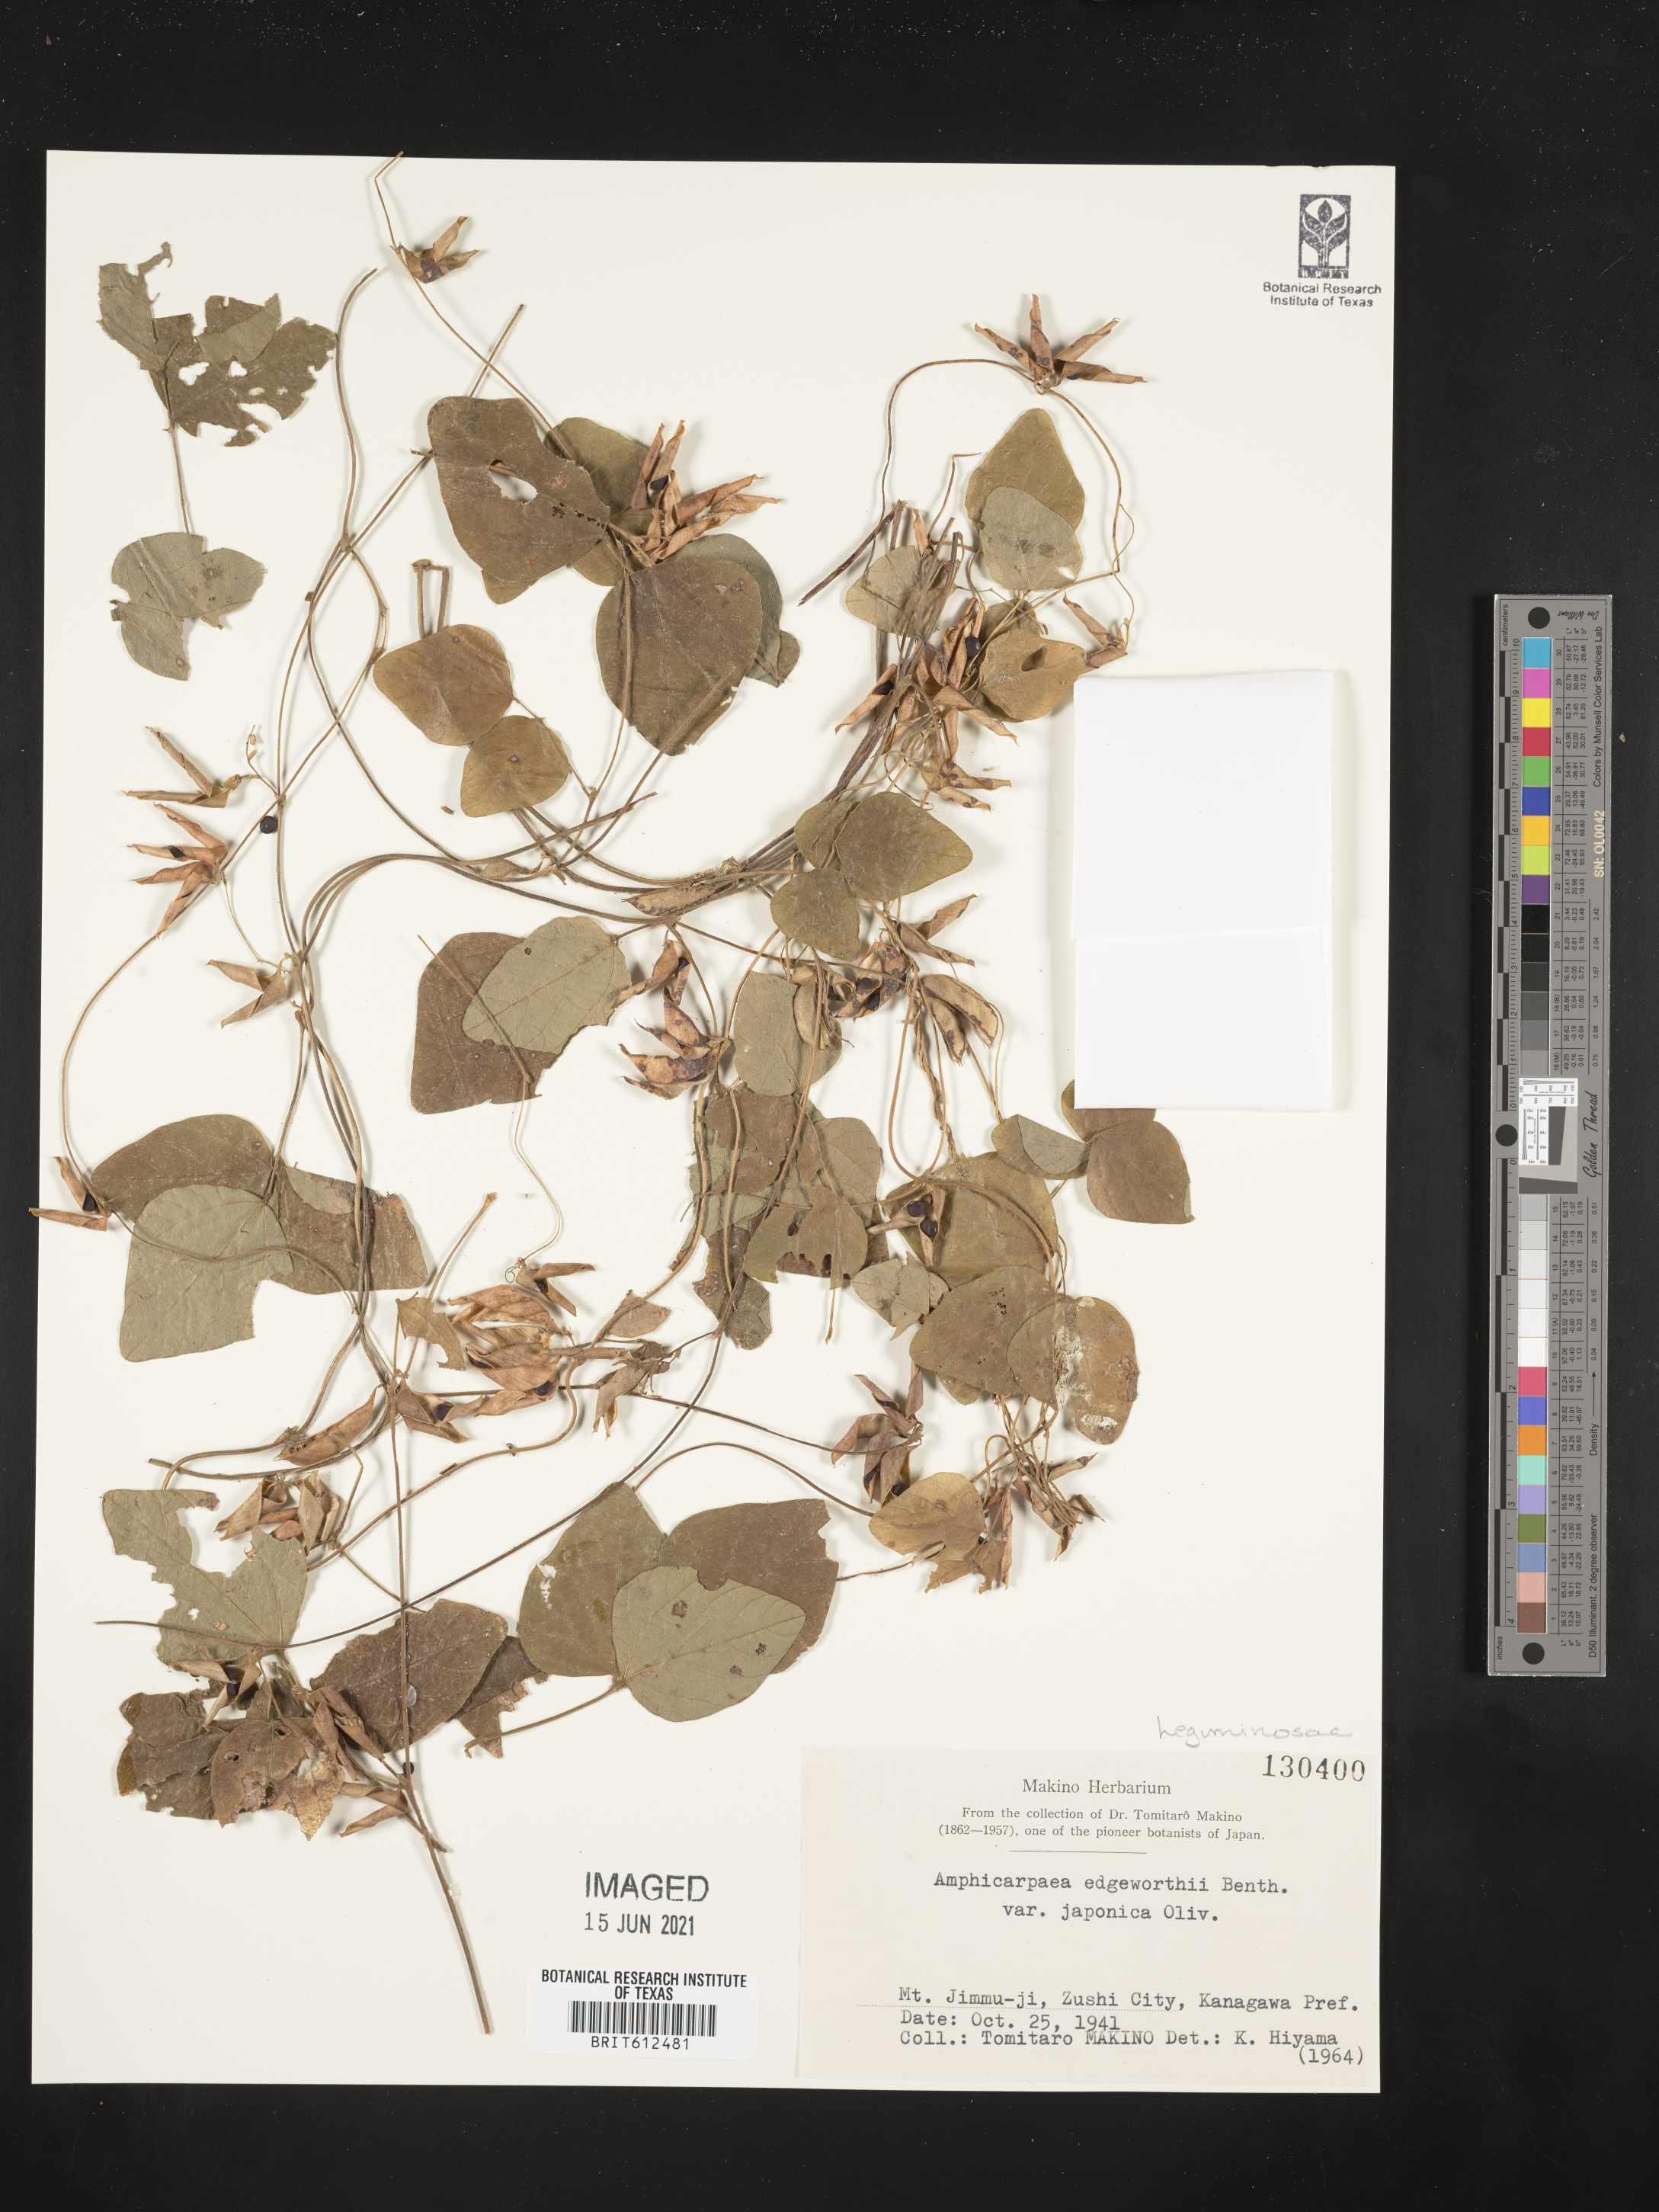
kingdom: Plantae
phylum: Tracheophyta
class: Magnoliopsida
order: Fabales
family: Fabaceae
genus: Amphicarpaea
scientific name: Amphicarpaea edgeworthii
